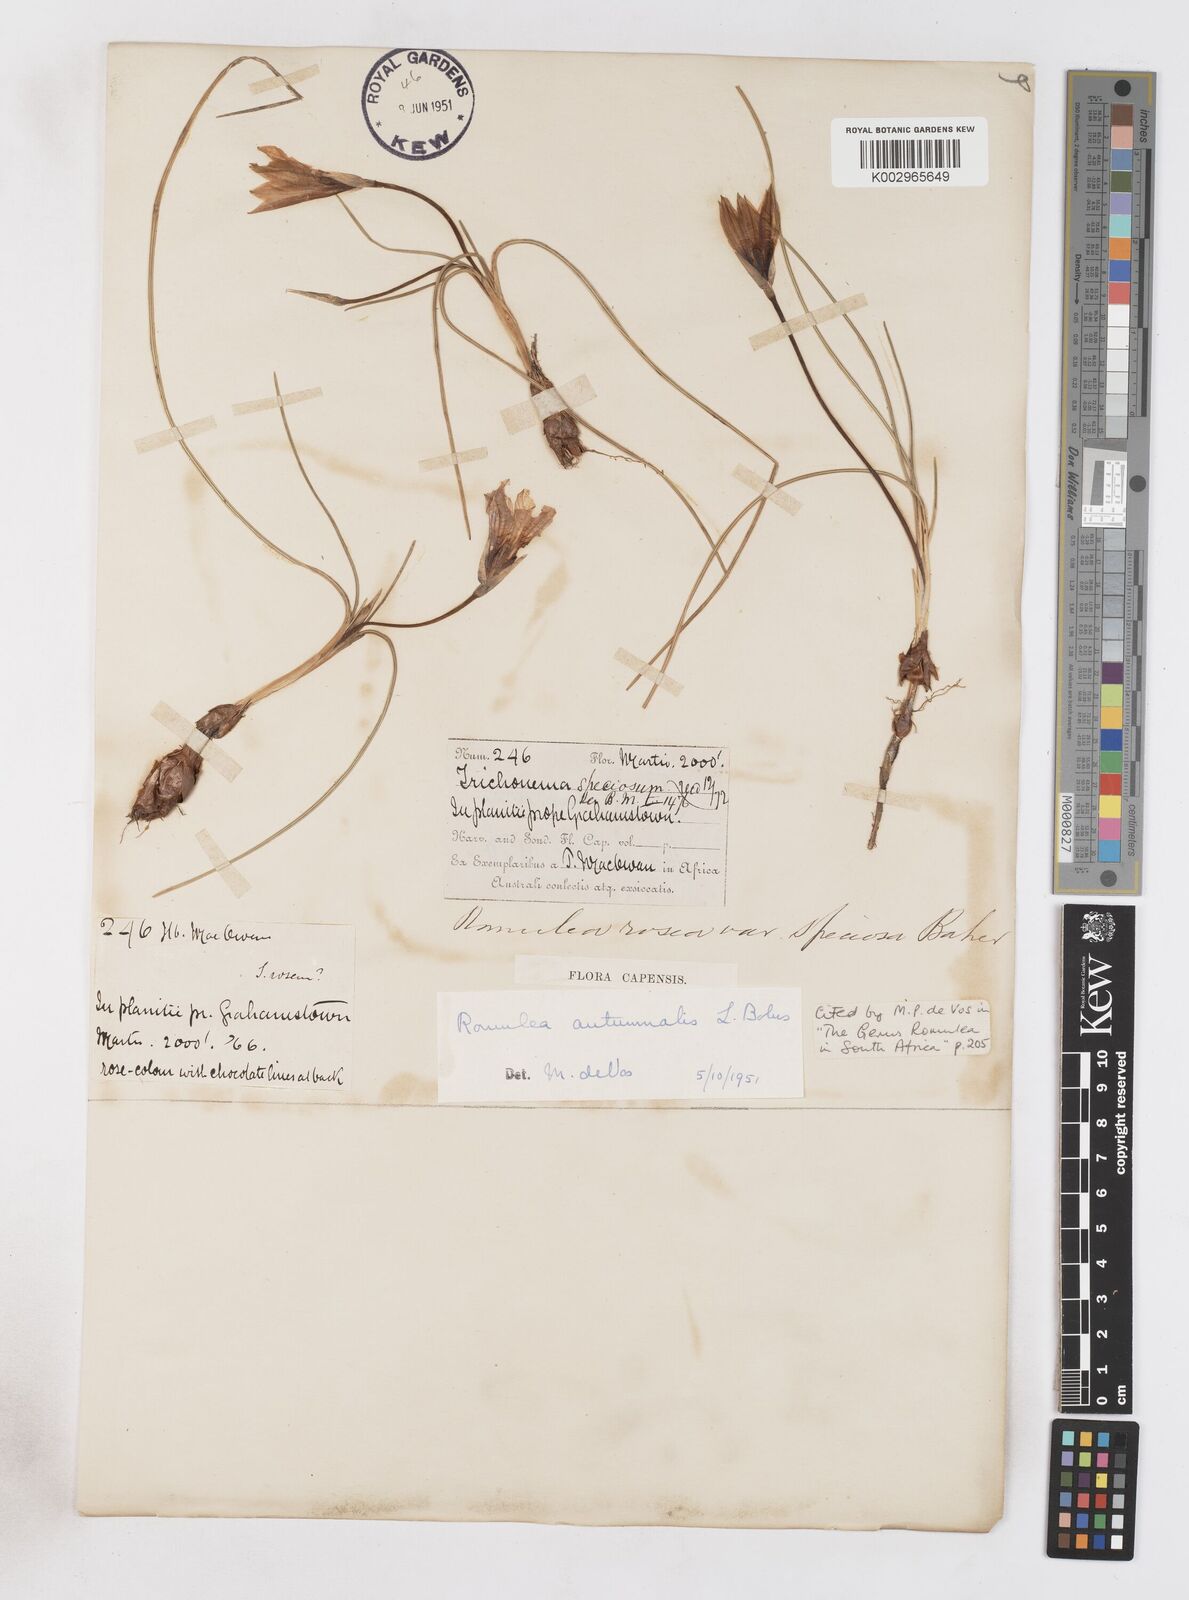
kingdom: Plantae
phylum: Tracheophyta
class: Liliopsida
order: Asparagales
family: Iridaceae
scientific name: Iridaceae
